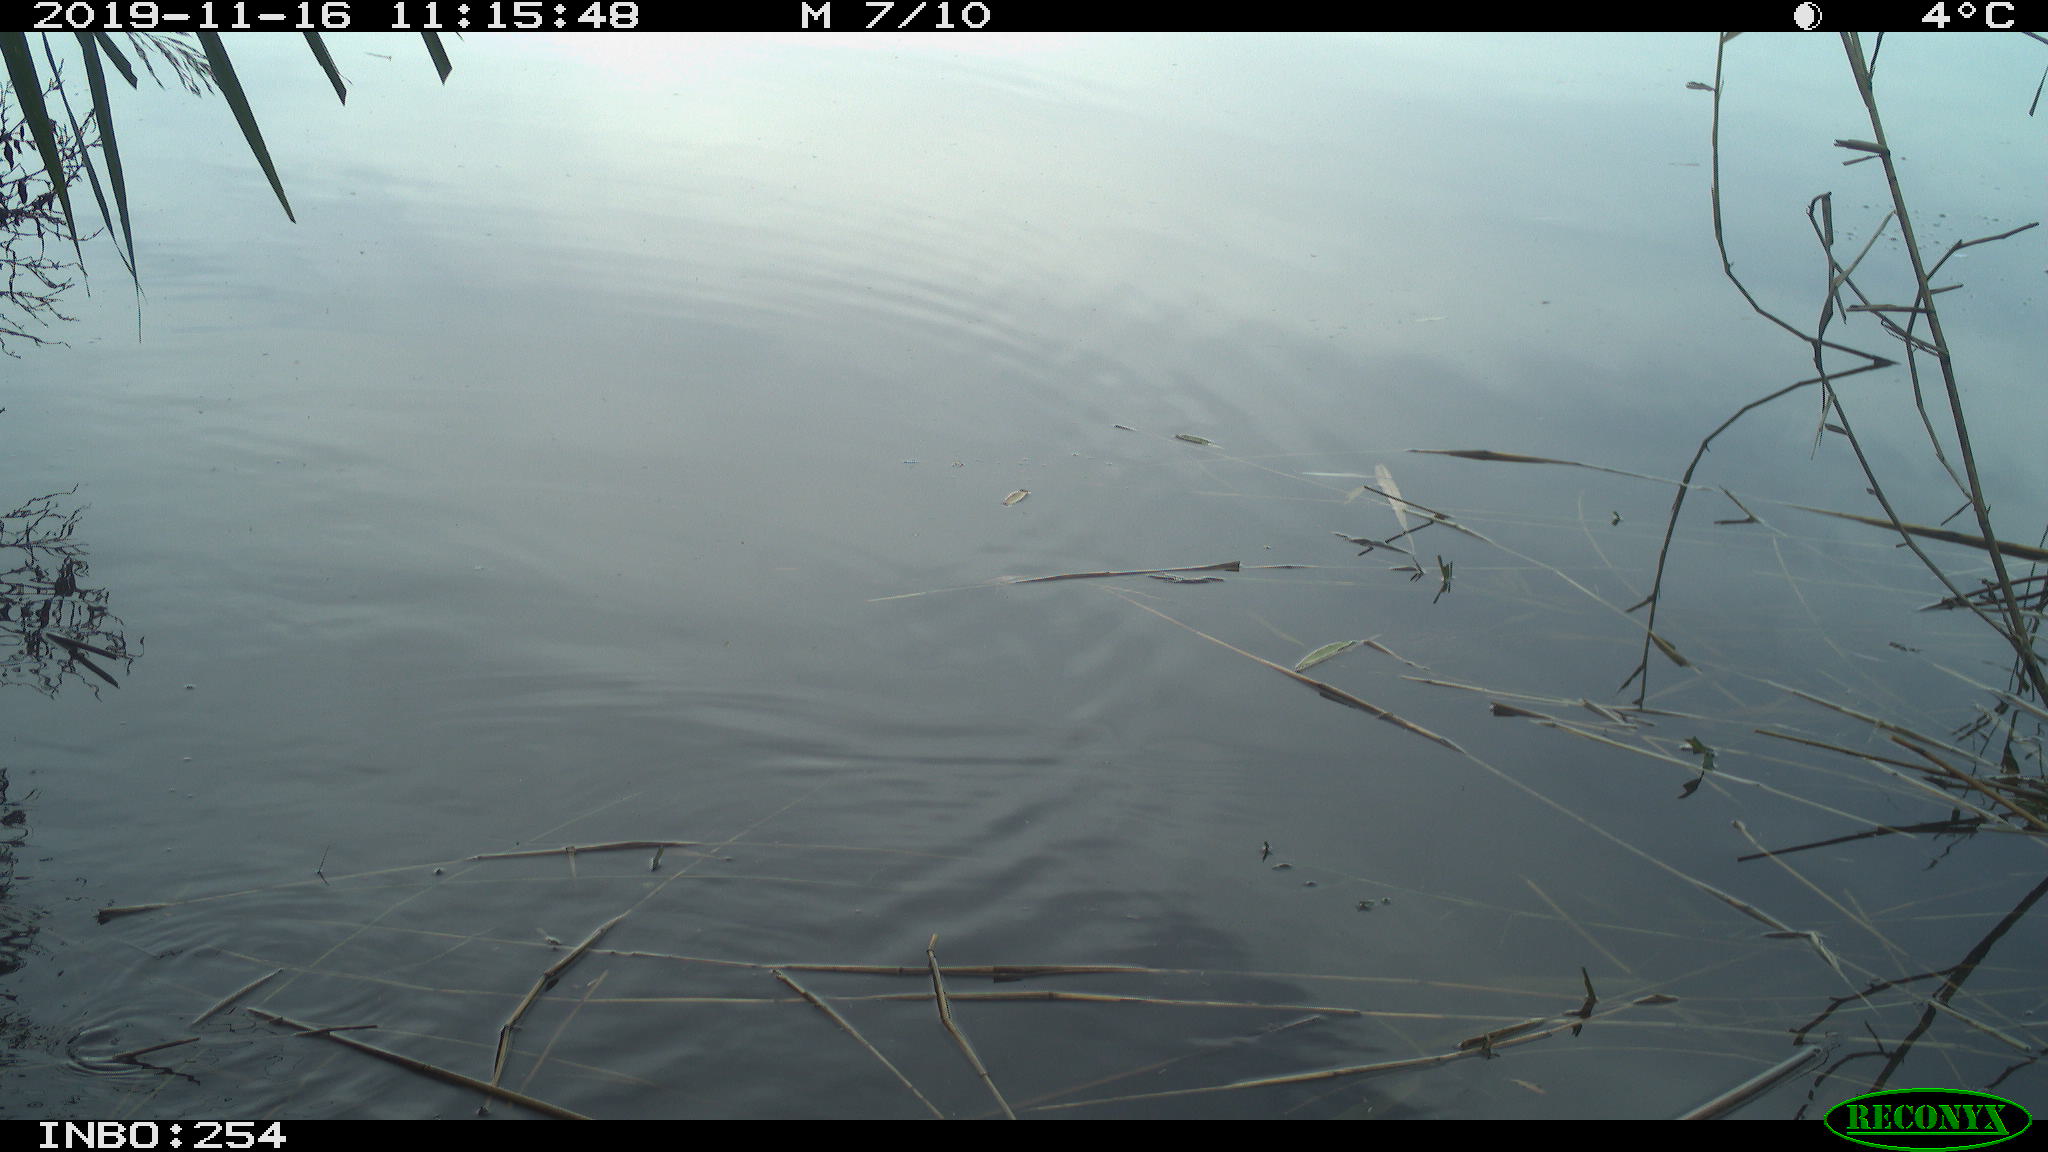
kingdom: Animalia
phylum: Chordata
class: Aves
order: Gruiformes
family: Rallidae
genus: Gallinula
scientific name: Gallinula chloropus
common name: Common moorhen
